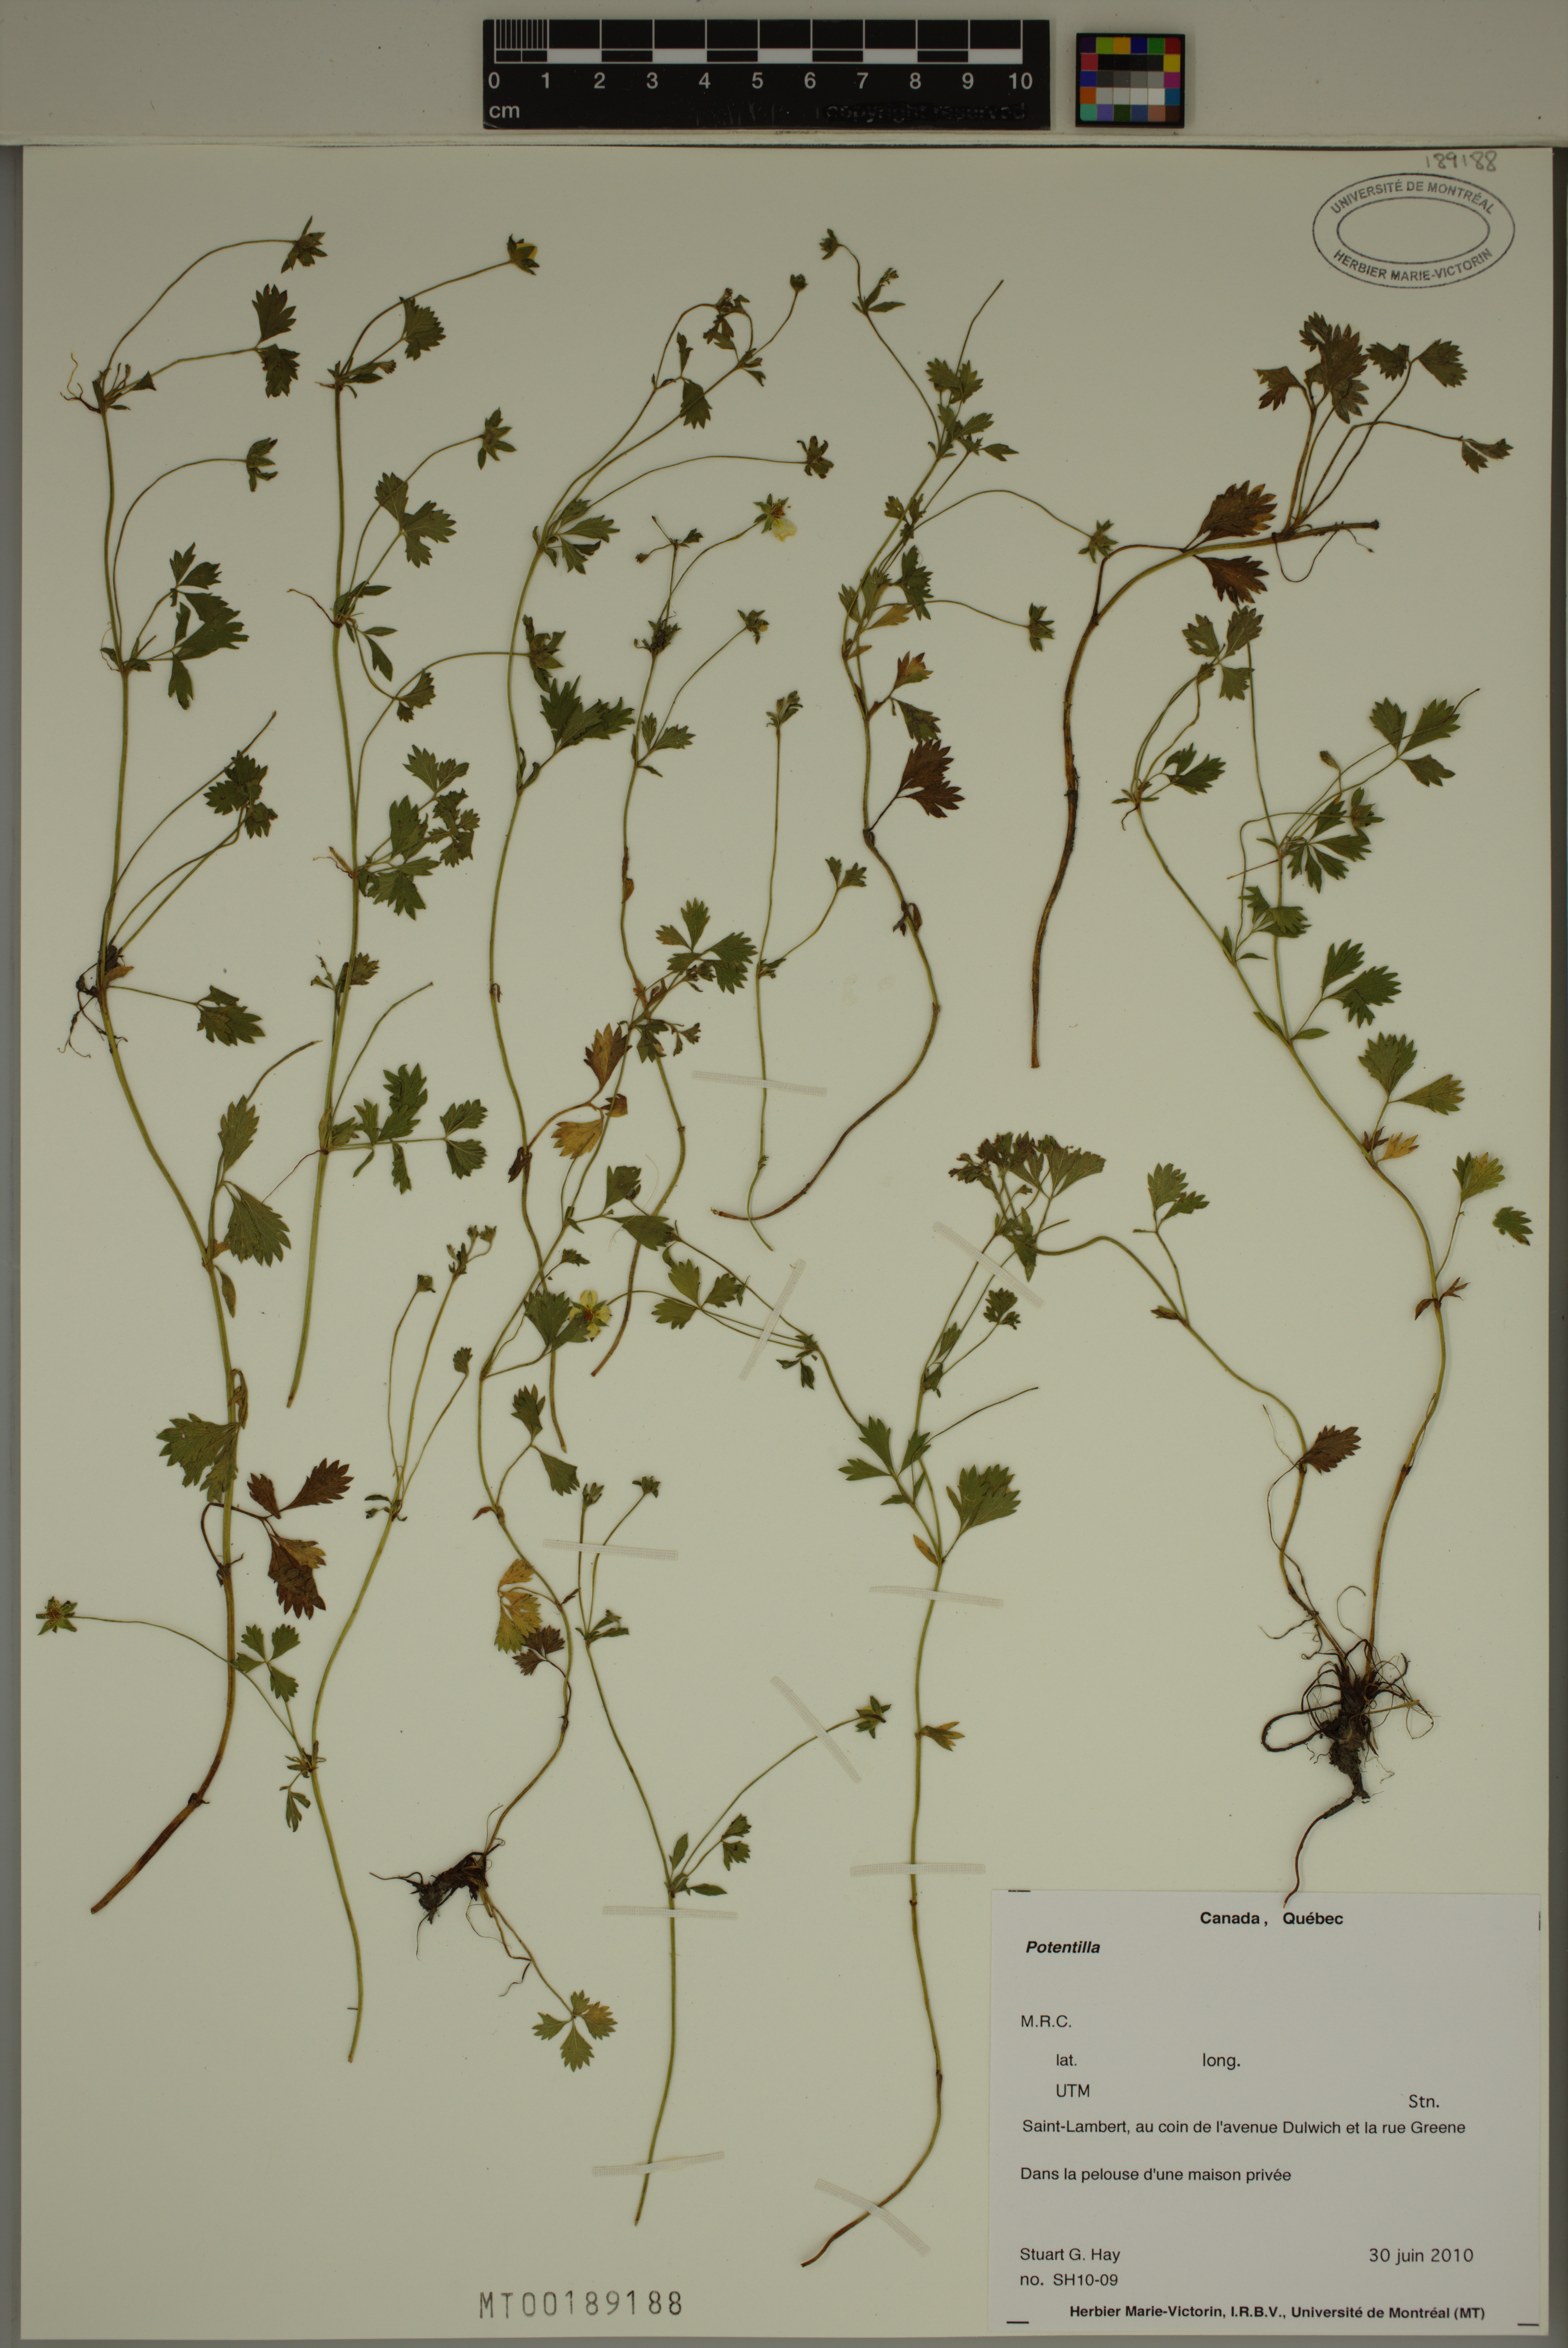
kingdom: Plantae
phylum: Tracheophyta
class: Magnoliopsida
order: Rosales
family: Rosaceae
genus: Potentilla
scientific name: Potentilla
